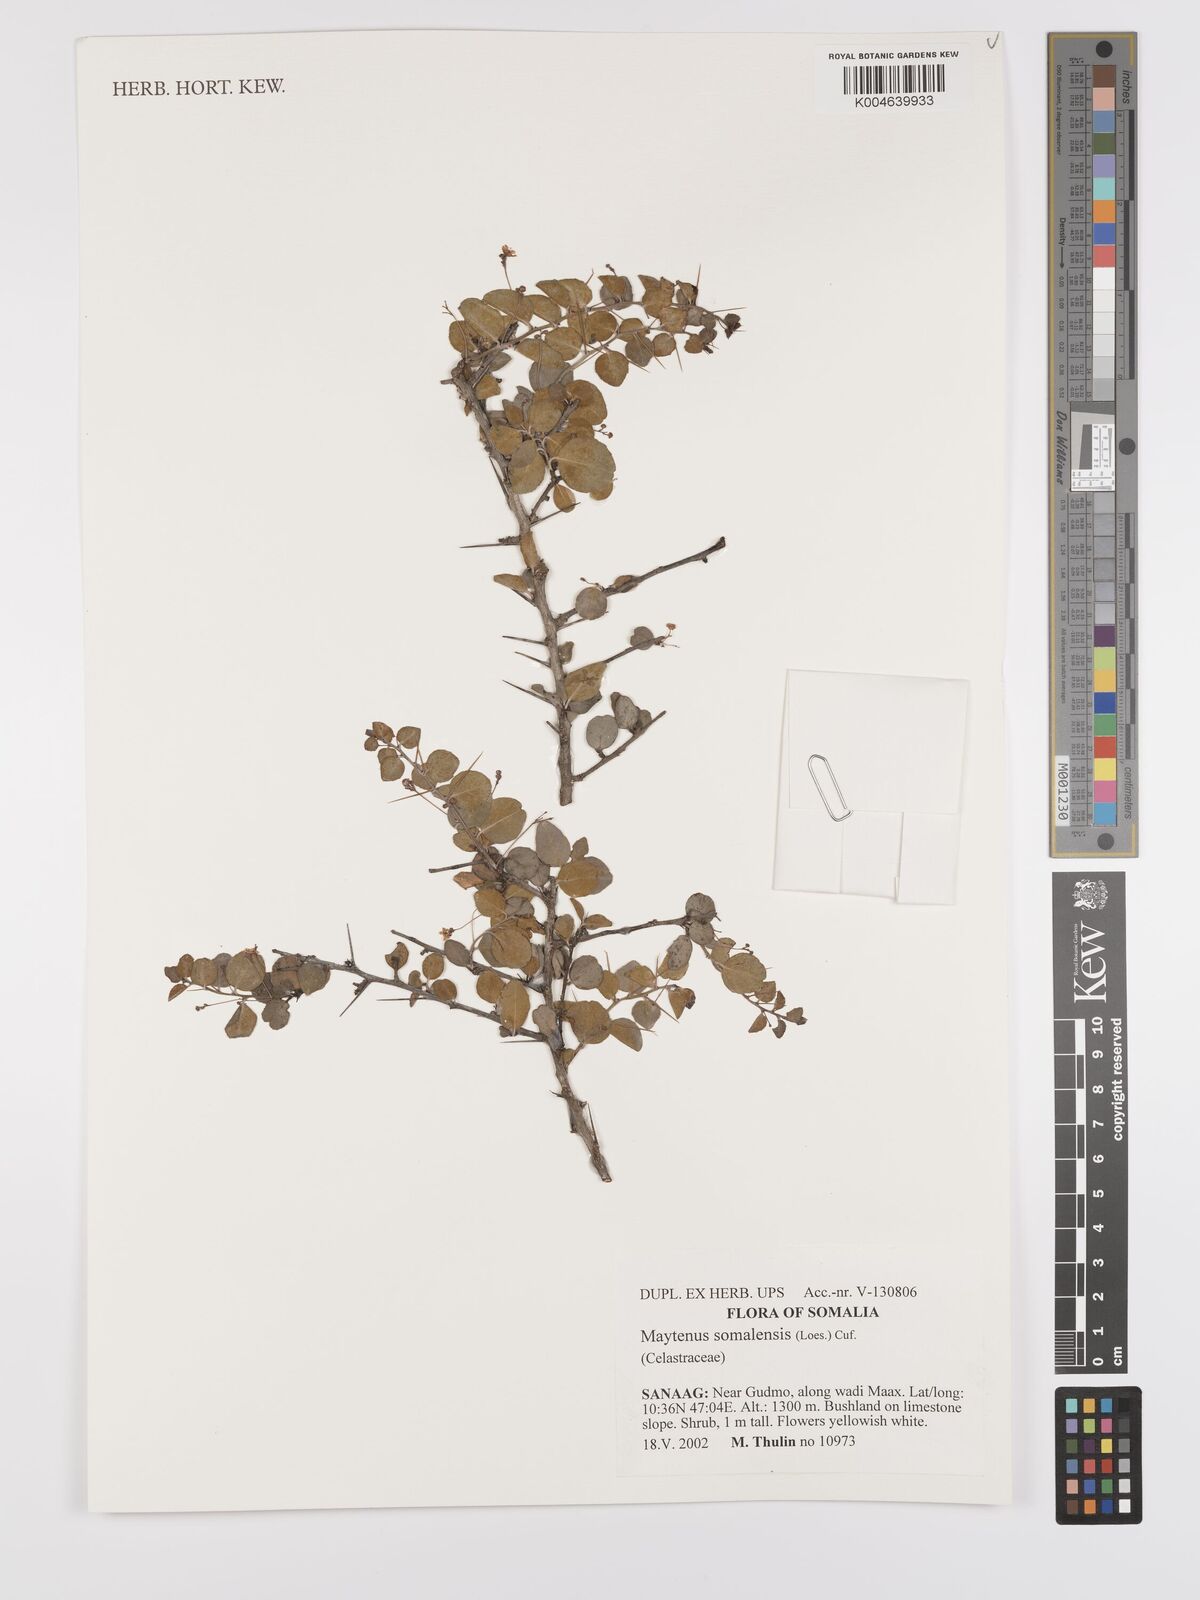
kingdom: Plantae
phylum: Tracheophyta
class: Magnoliopsida
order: Celastrales
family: Celastraceae
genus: Gymnosporia
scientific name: Gymnosporia somalensis
